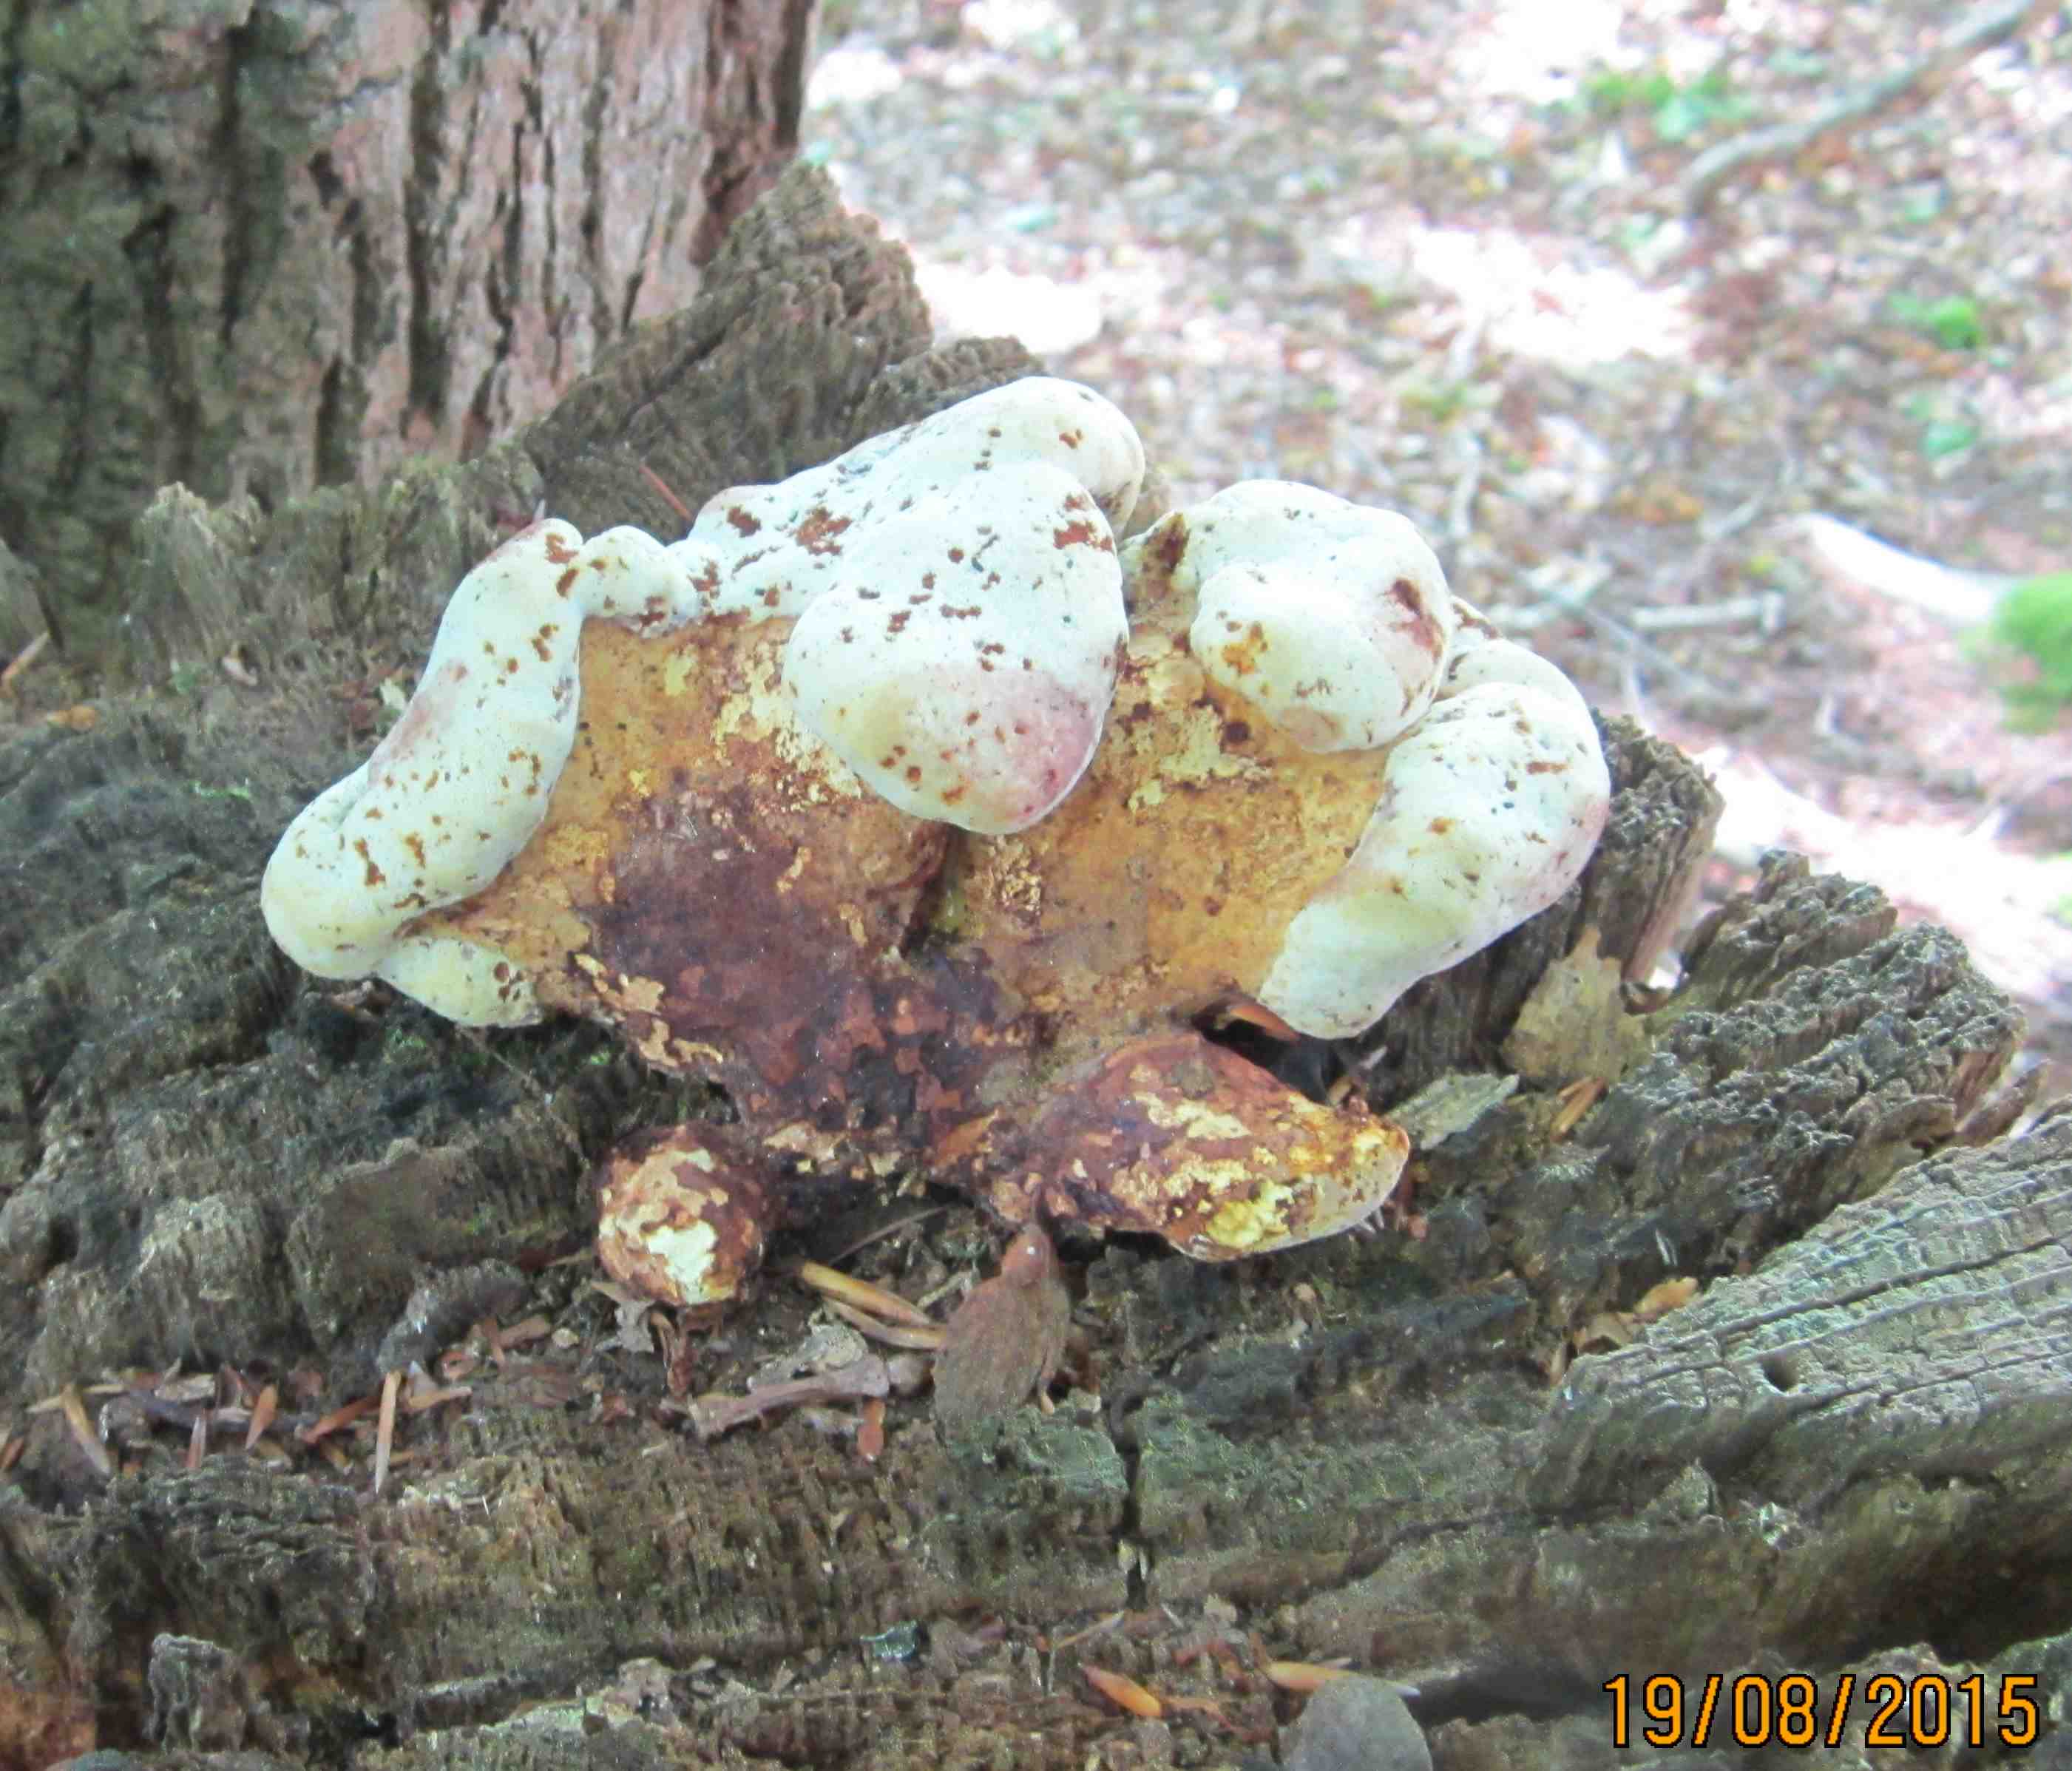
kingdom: Fungi
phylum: Basidiomycota
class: Agaricomycetes
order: Polyporales
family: Fomitopsidaceae
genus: Buglossoporus
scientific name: Buglossoporus quercinus
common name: egetunge
